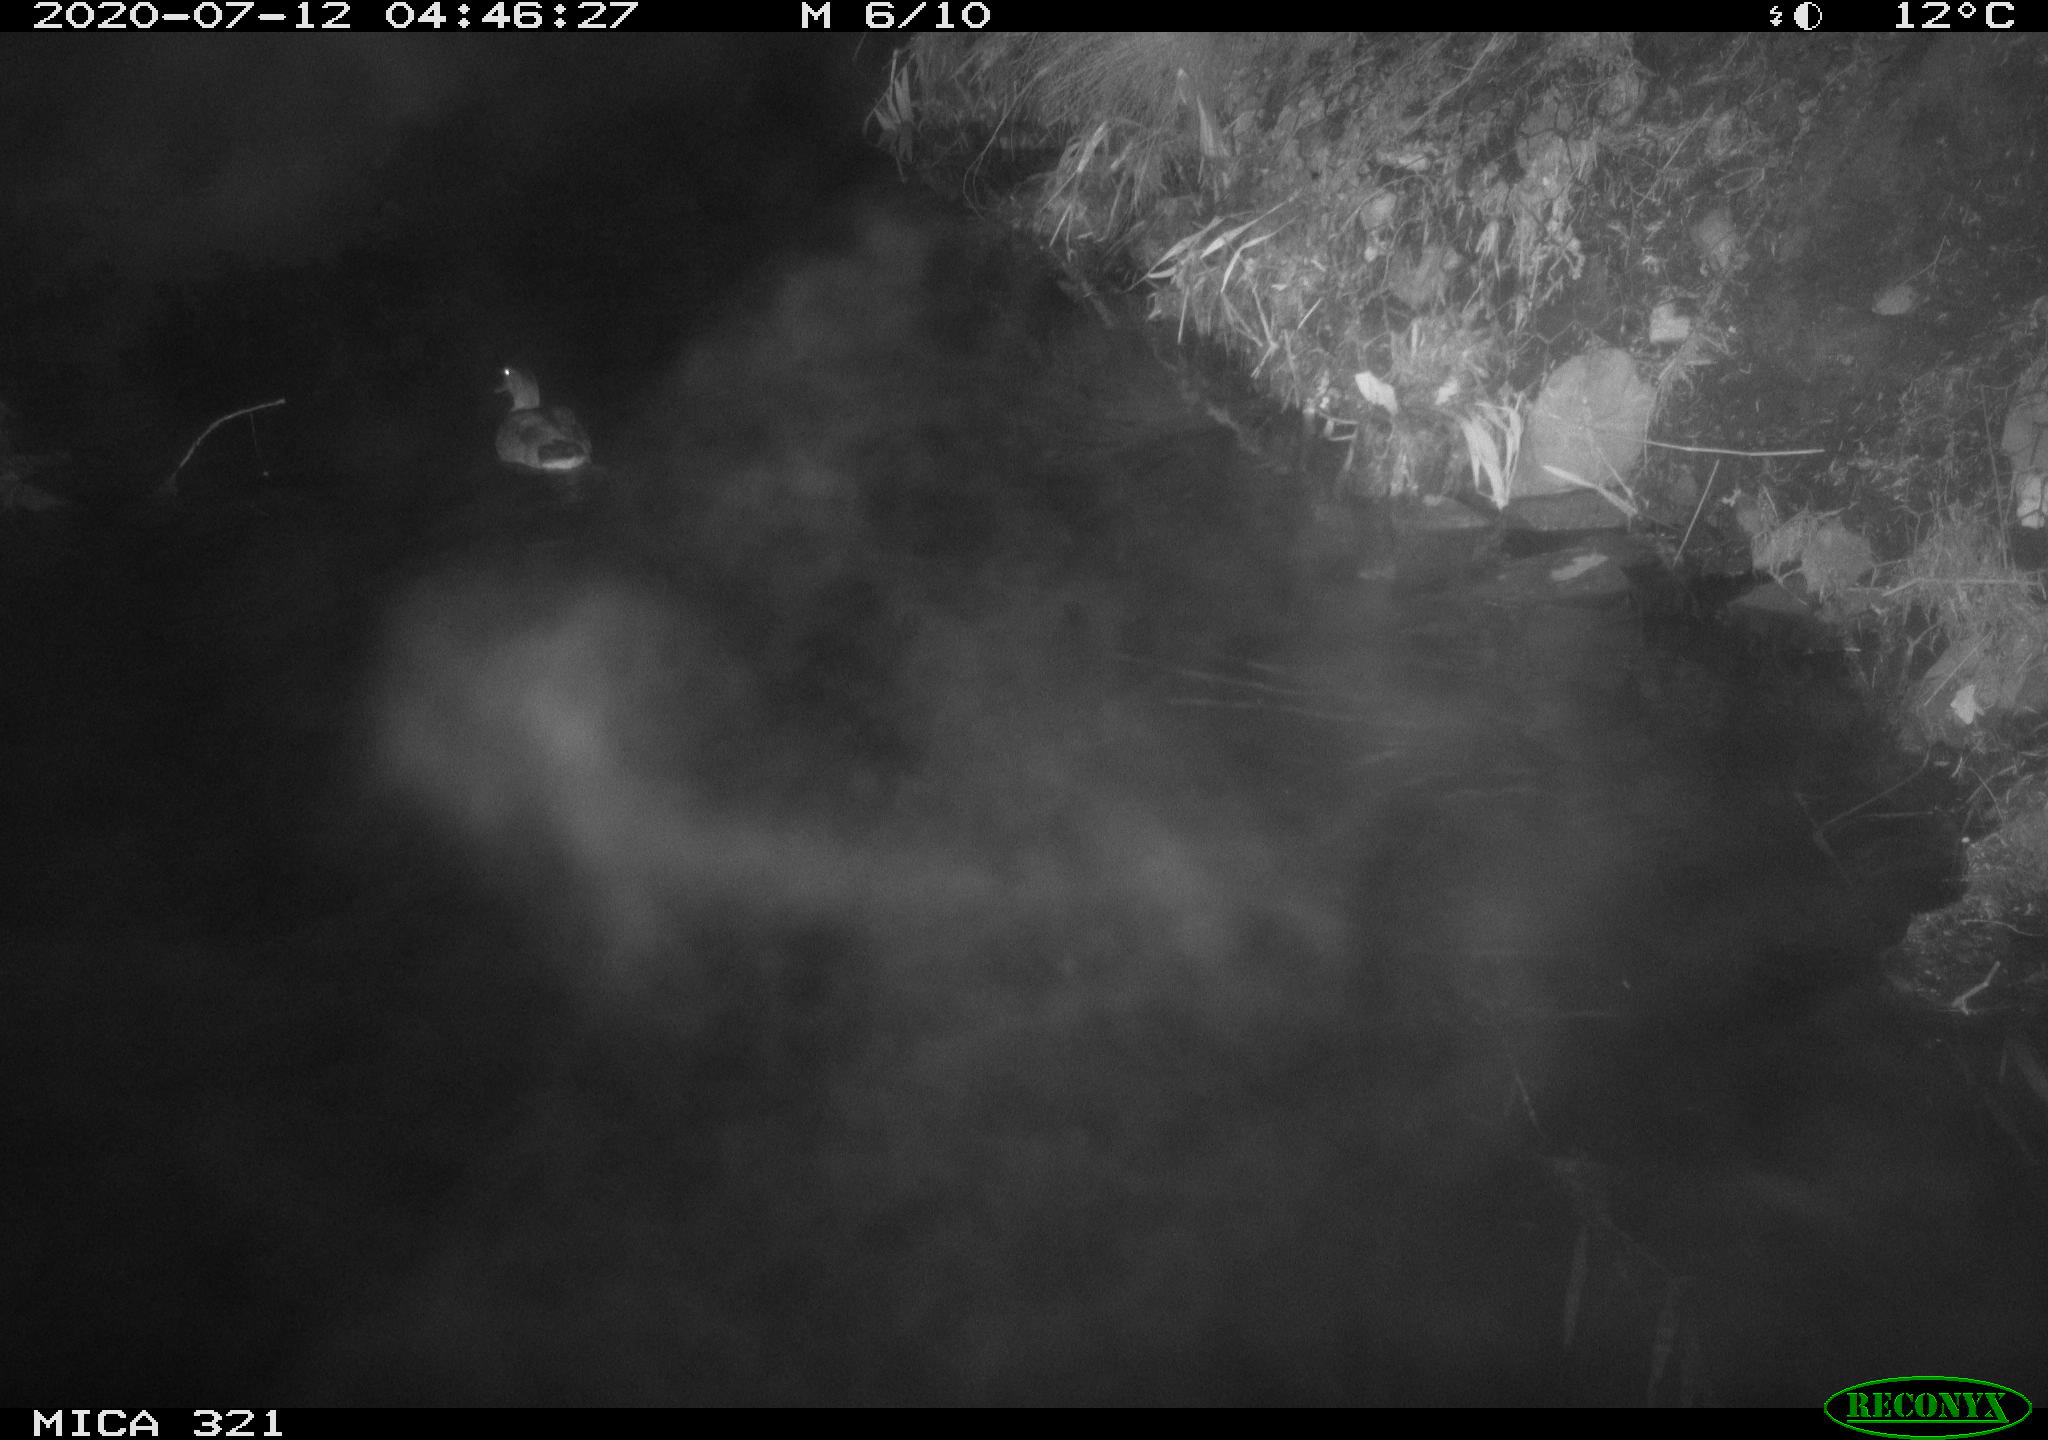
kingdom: Animalia
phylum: Chordata
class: Aves
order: Anseriformes
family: Anatidae
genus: Anas
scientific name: Anas platyrhynchos
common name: Mallard
